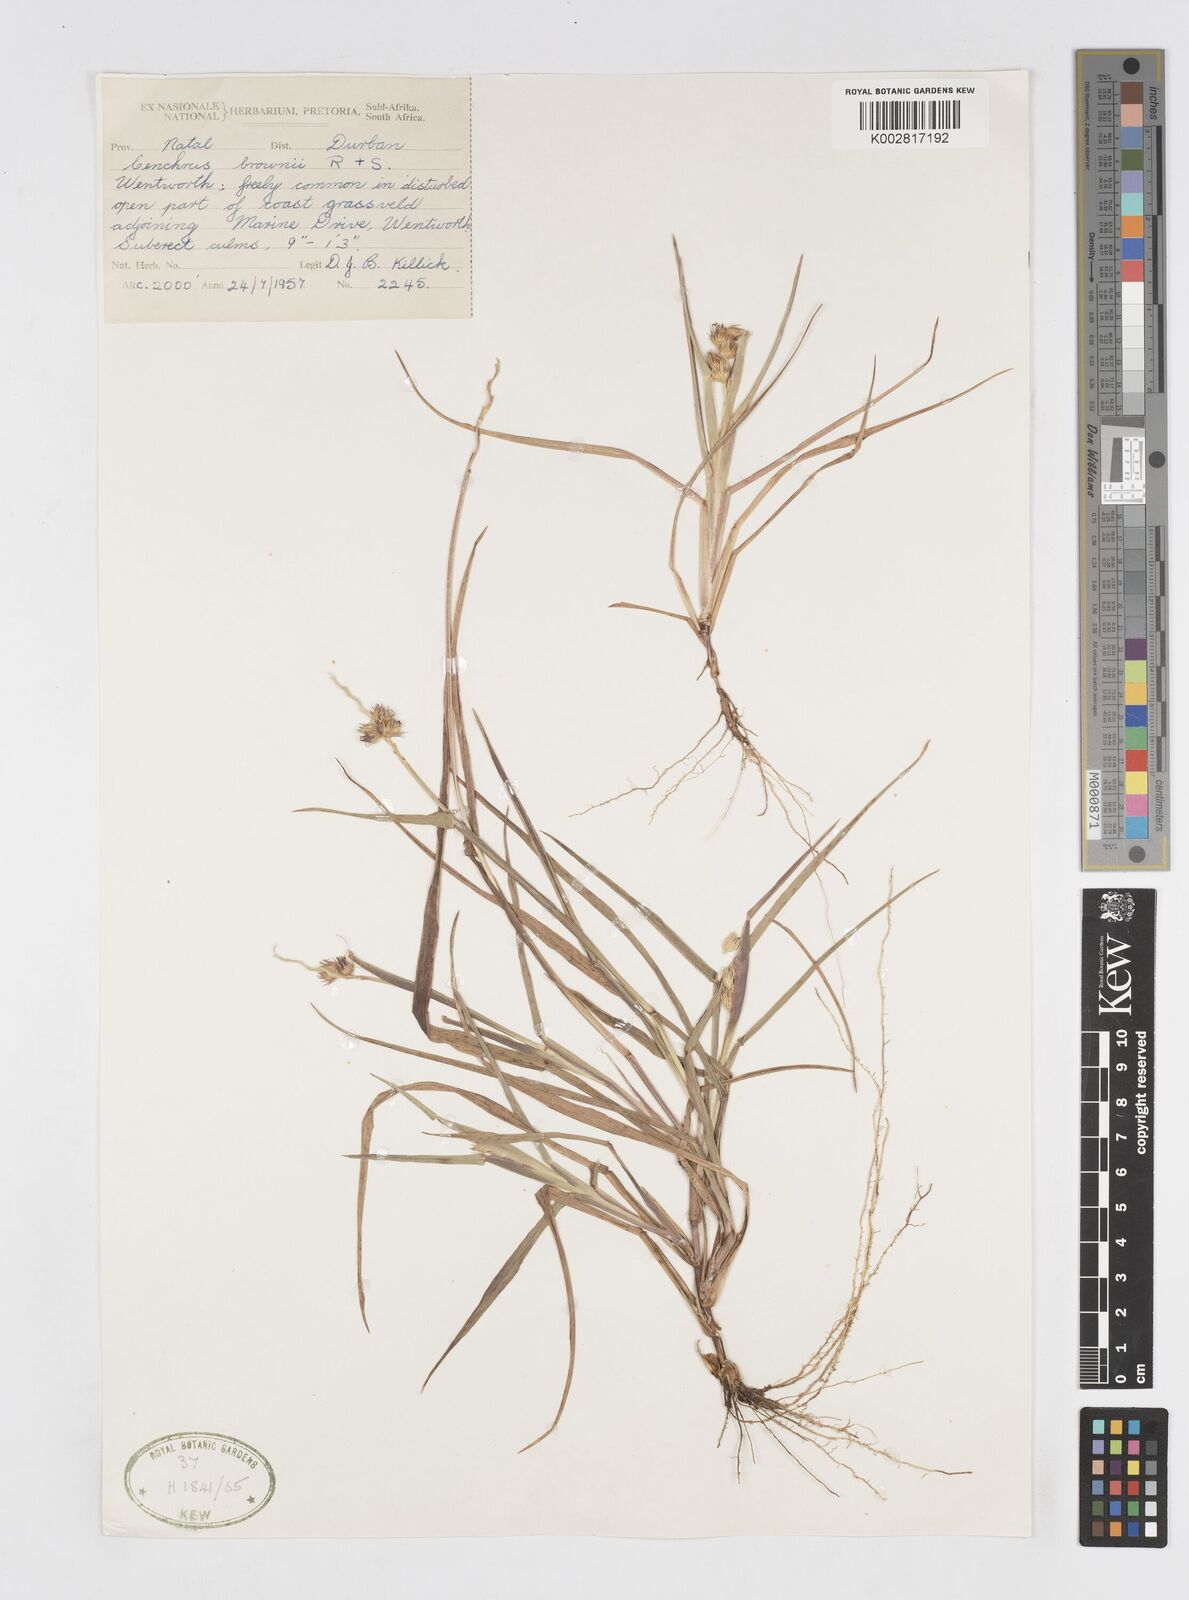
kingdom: Plantae
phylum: Tracheophyta
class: Liliopsida
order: Poales
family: Poaceae
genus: Cenchrus
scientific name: Cenchrus brownii
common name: Slim-bristle sandbur
